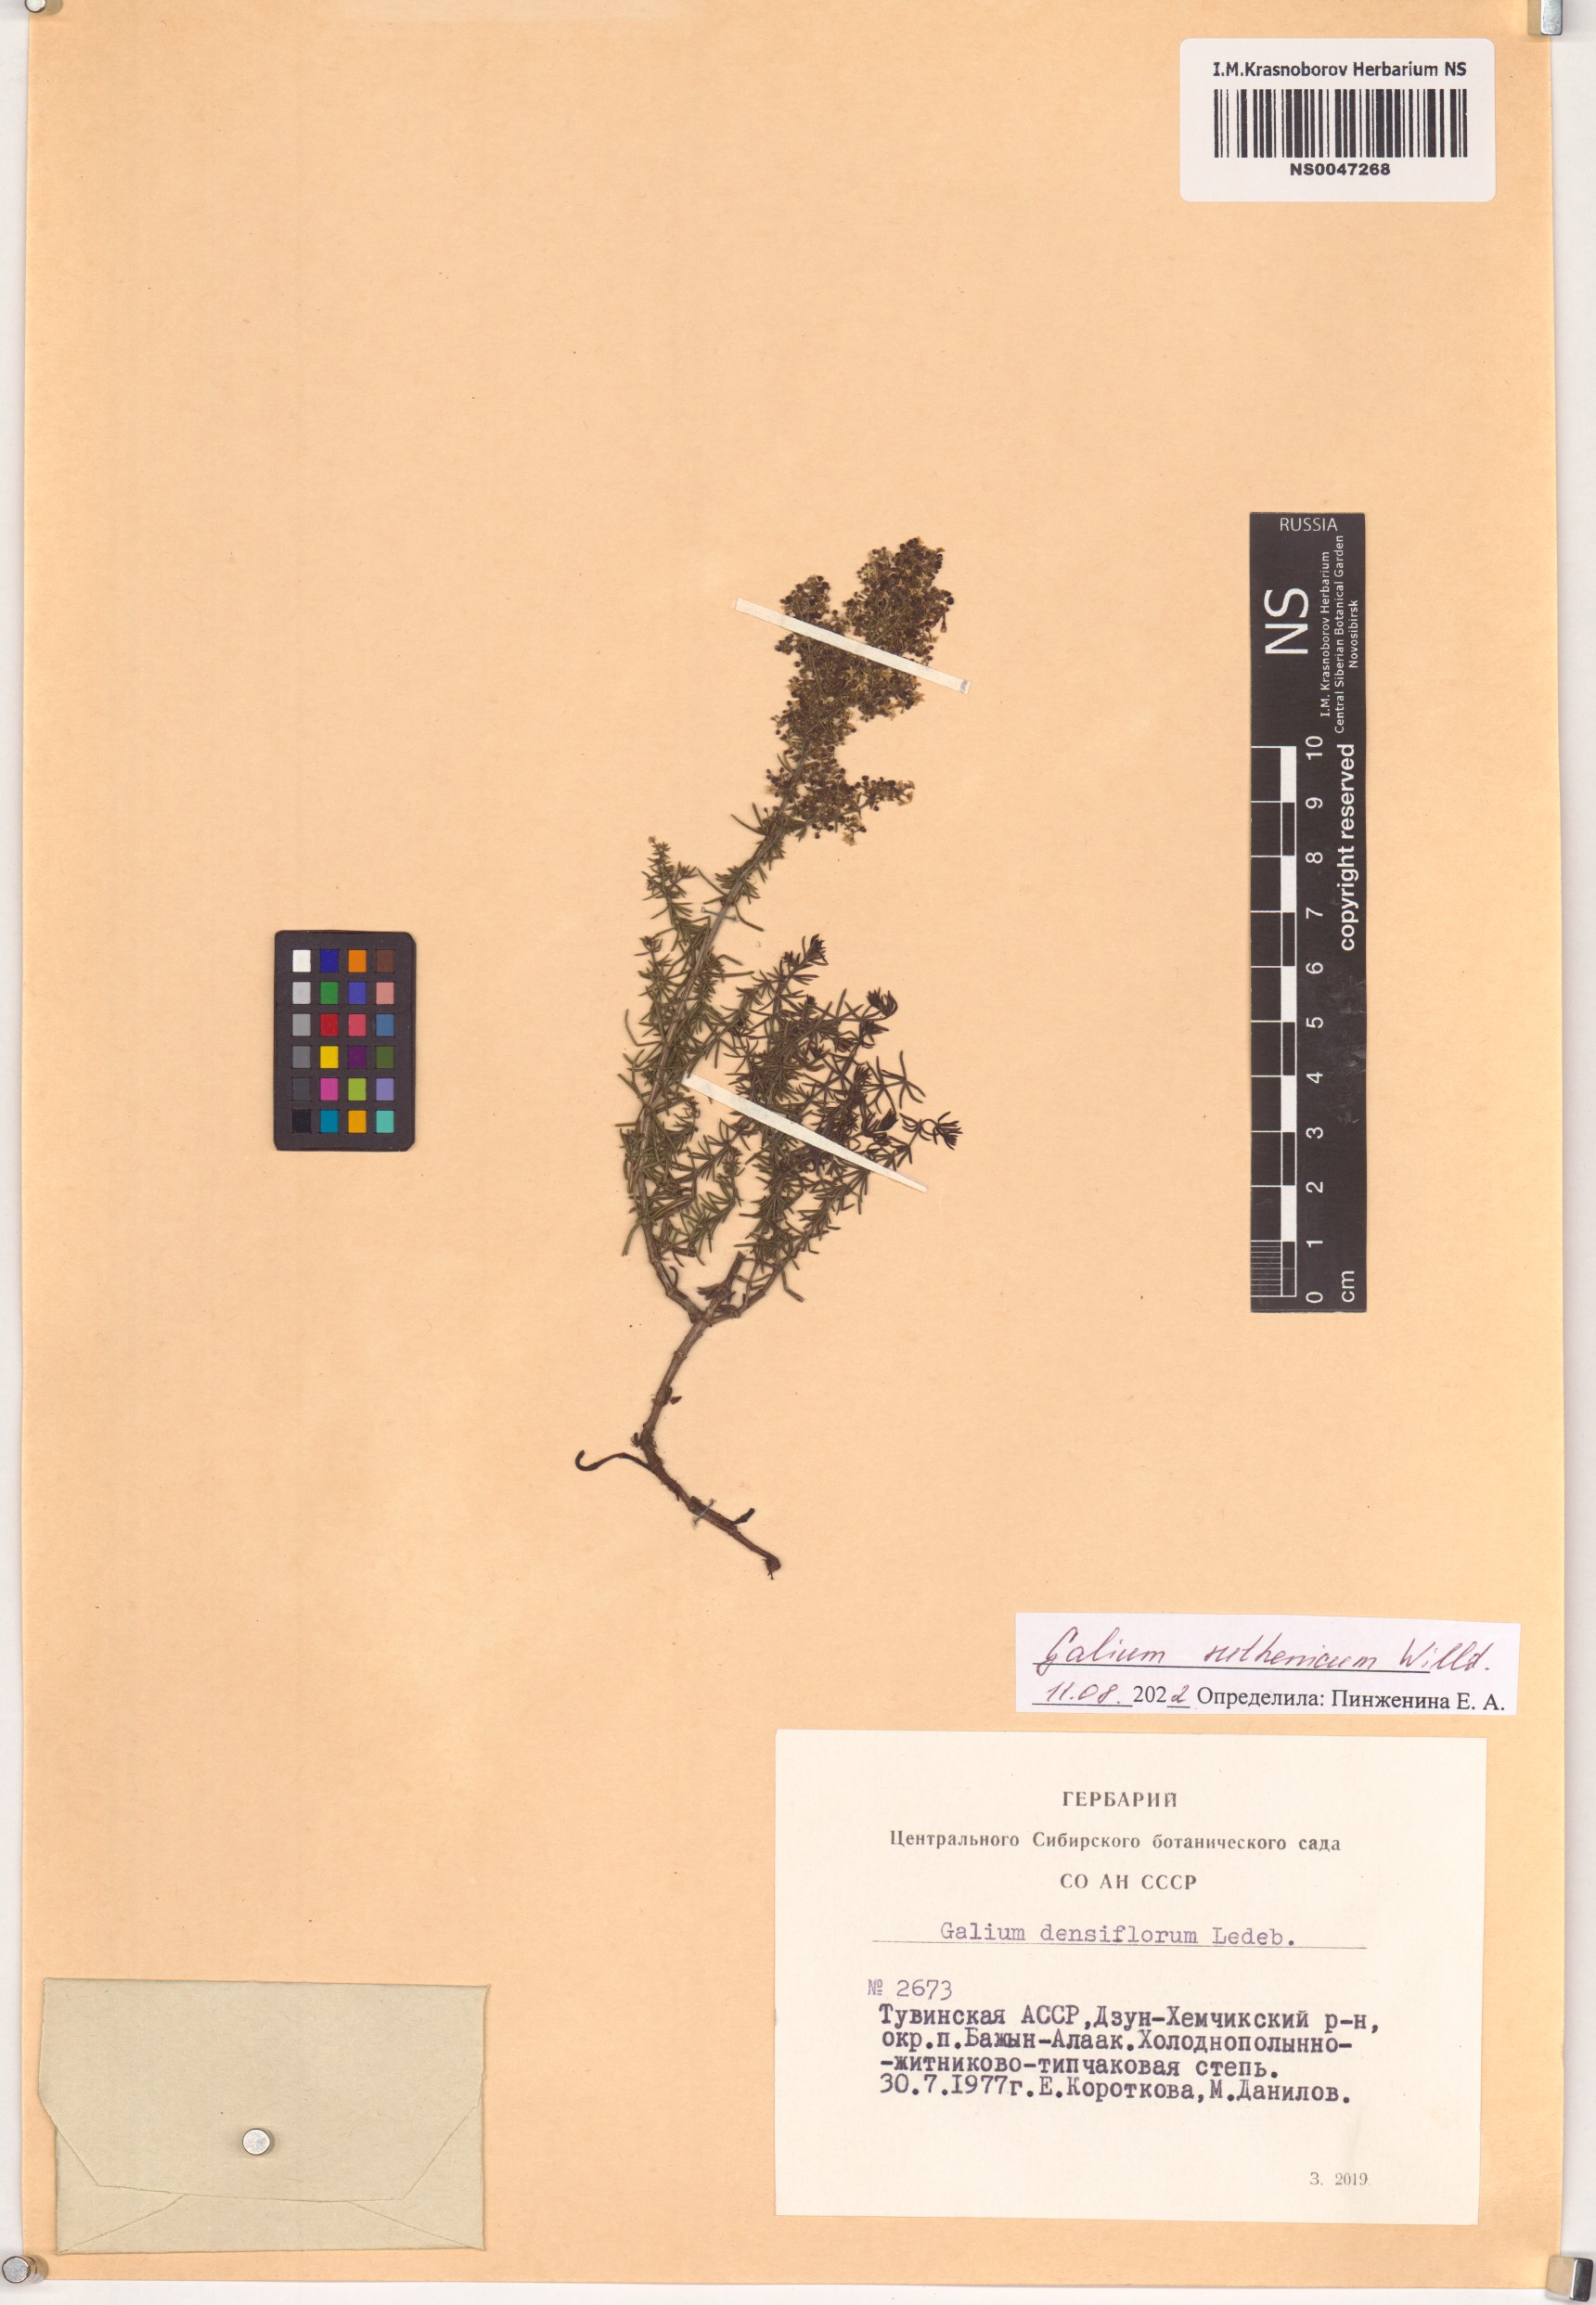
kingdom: Plantae
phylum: Tracheophyta
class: Magnoliopsida
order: Gentianales
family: Rubiaceae
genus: Galium
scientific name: Galium verum
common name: Lady's bedstraw
